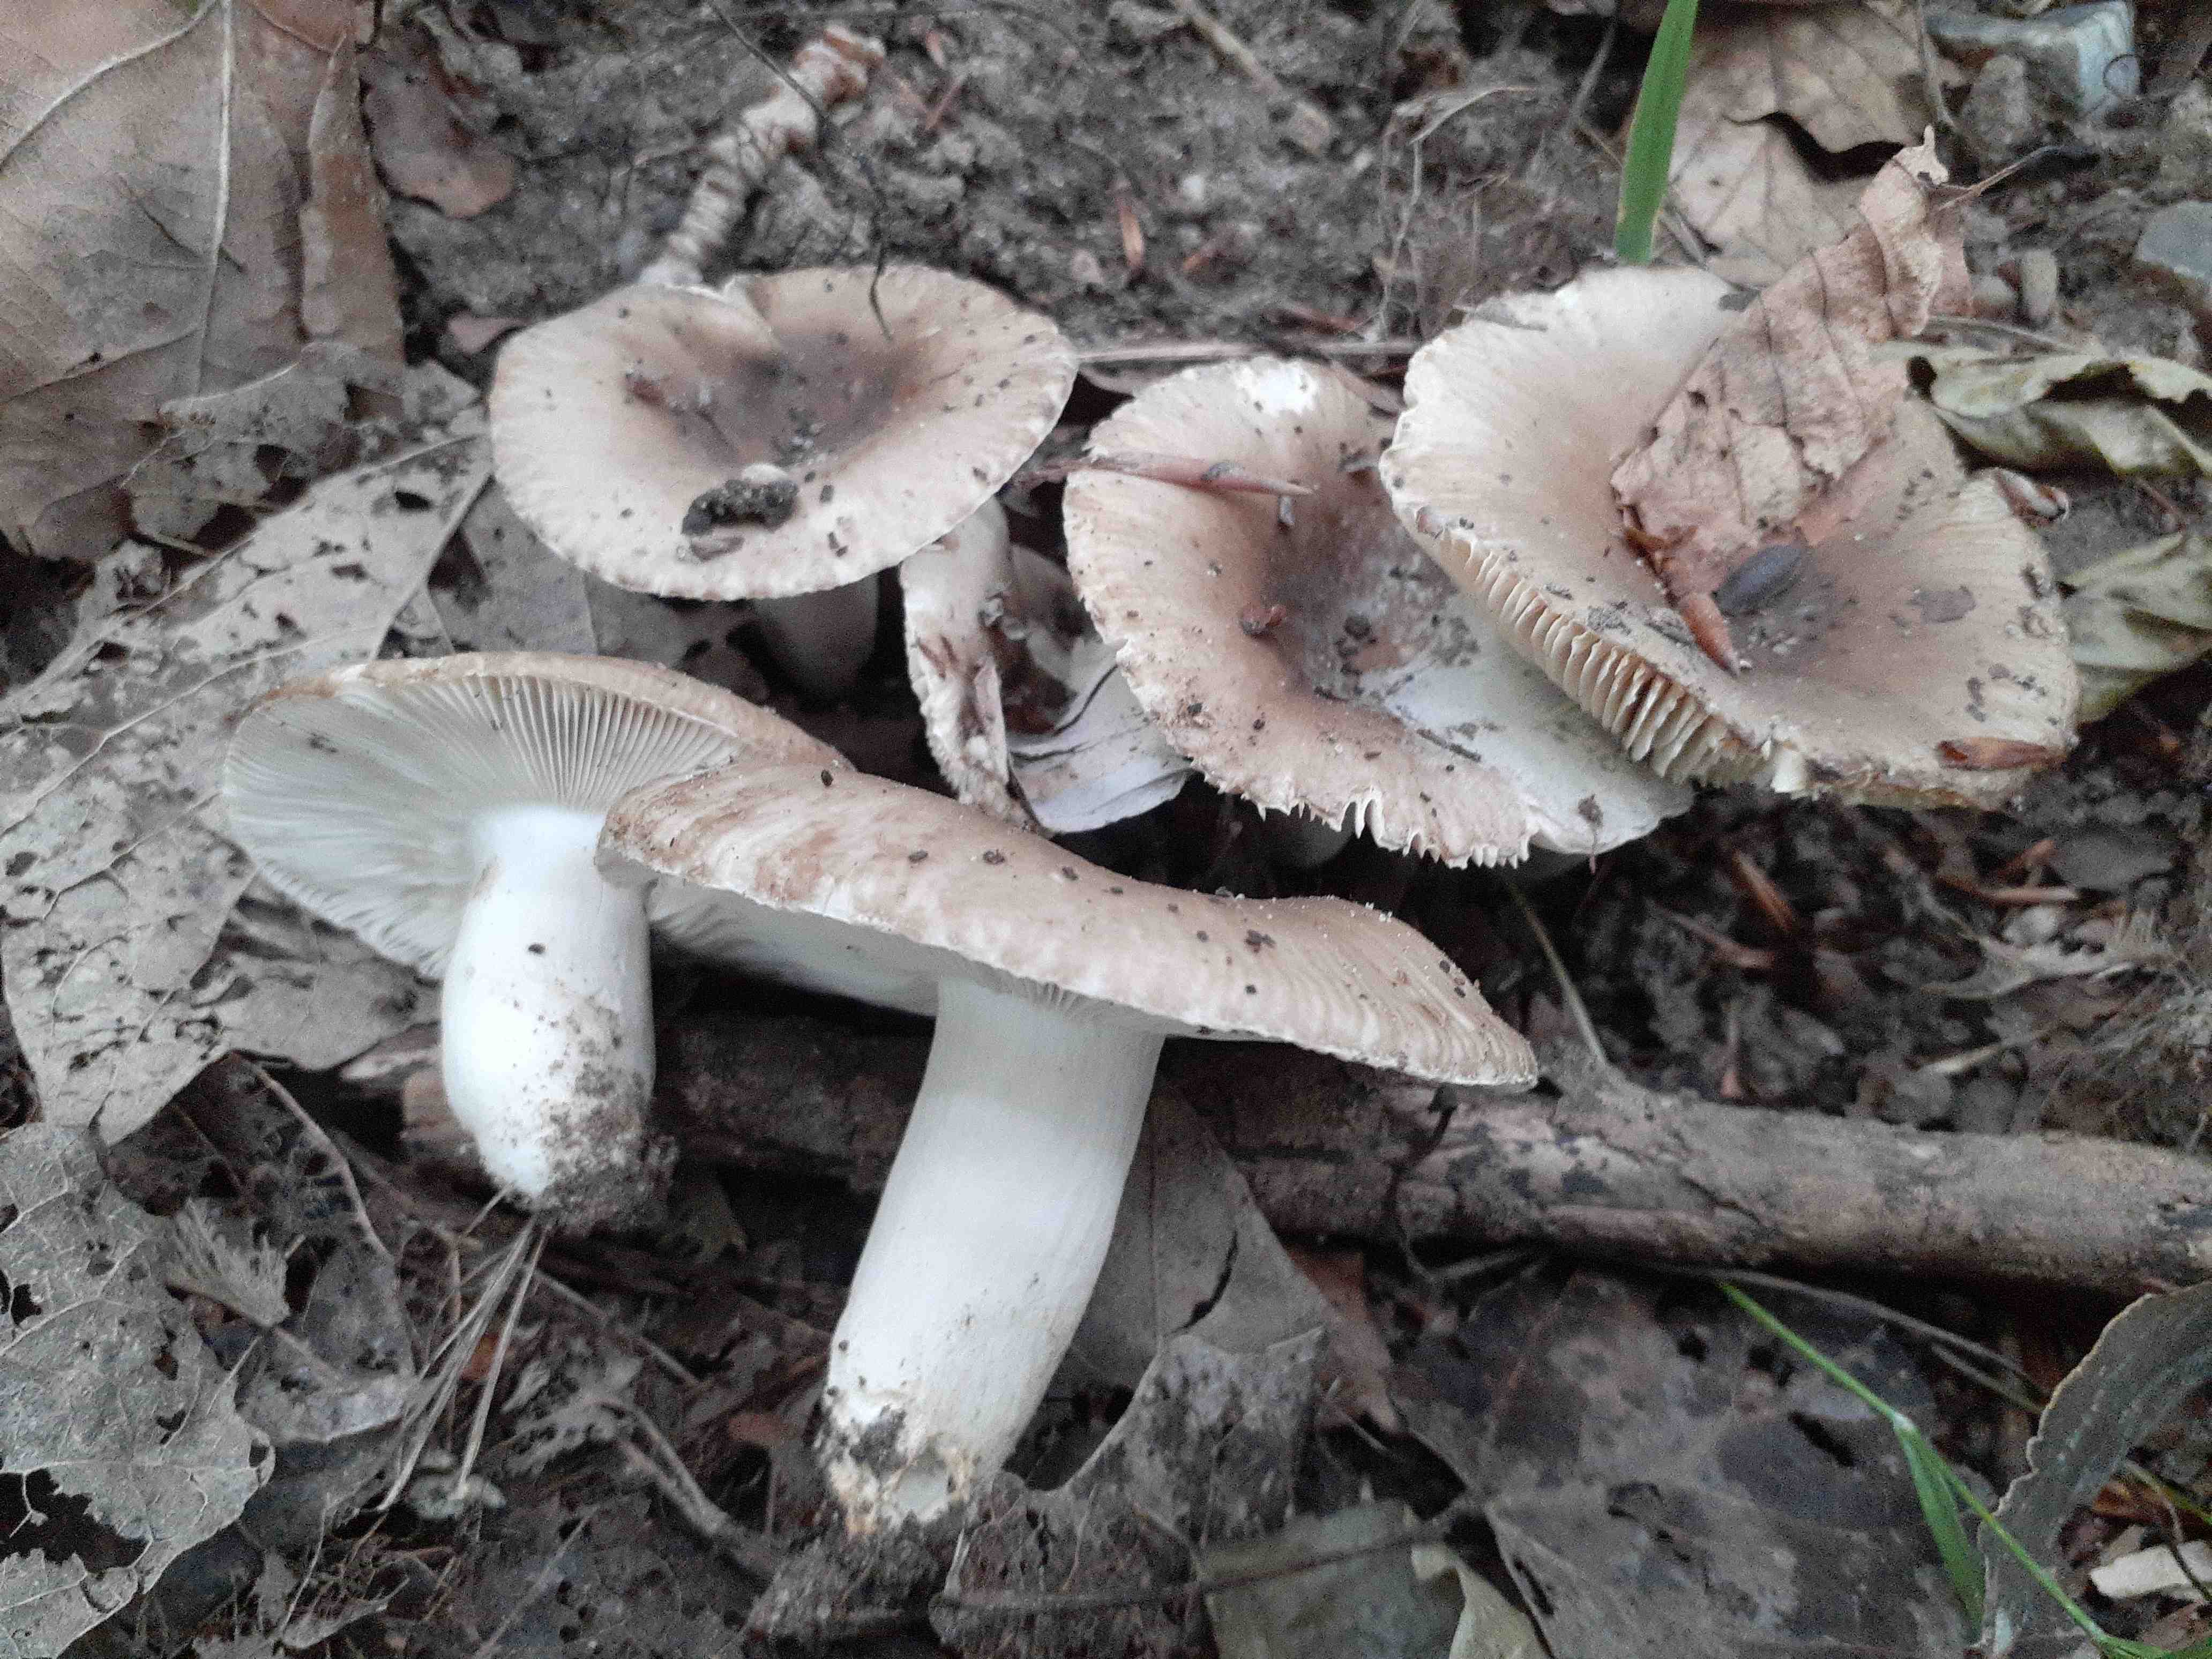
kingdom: Fungi
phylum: Basidiomycota
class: Agaricomycetes
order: Russulales
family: Russulaceae
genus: Russula
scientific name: Russula amoenolens
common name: skarp kam-skørhat
